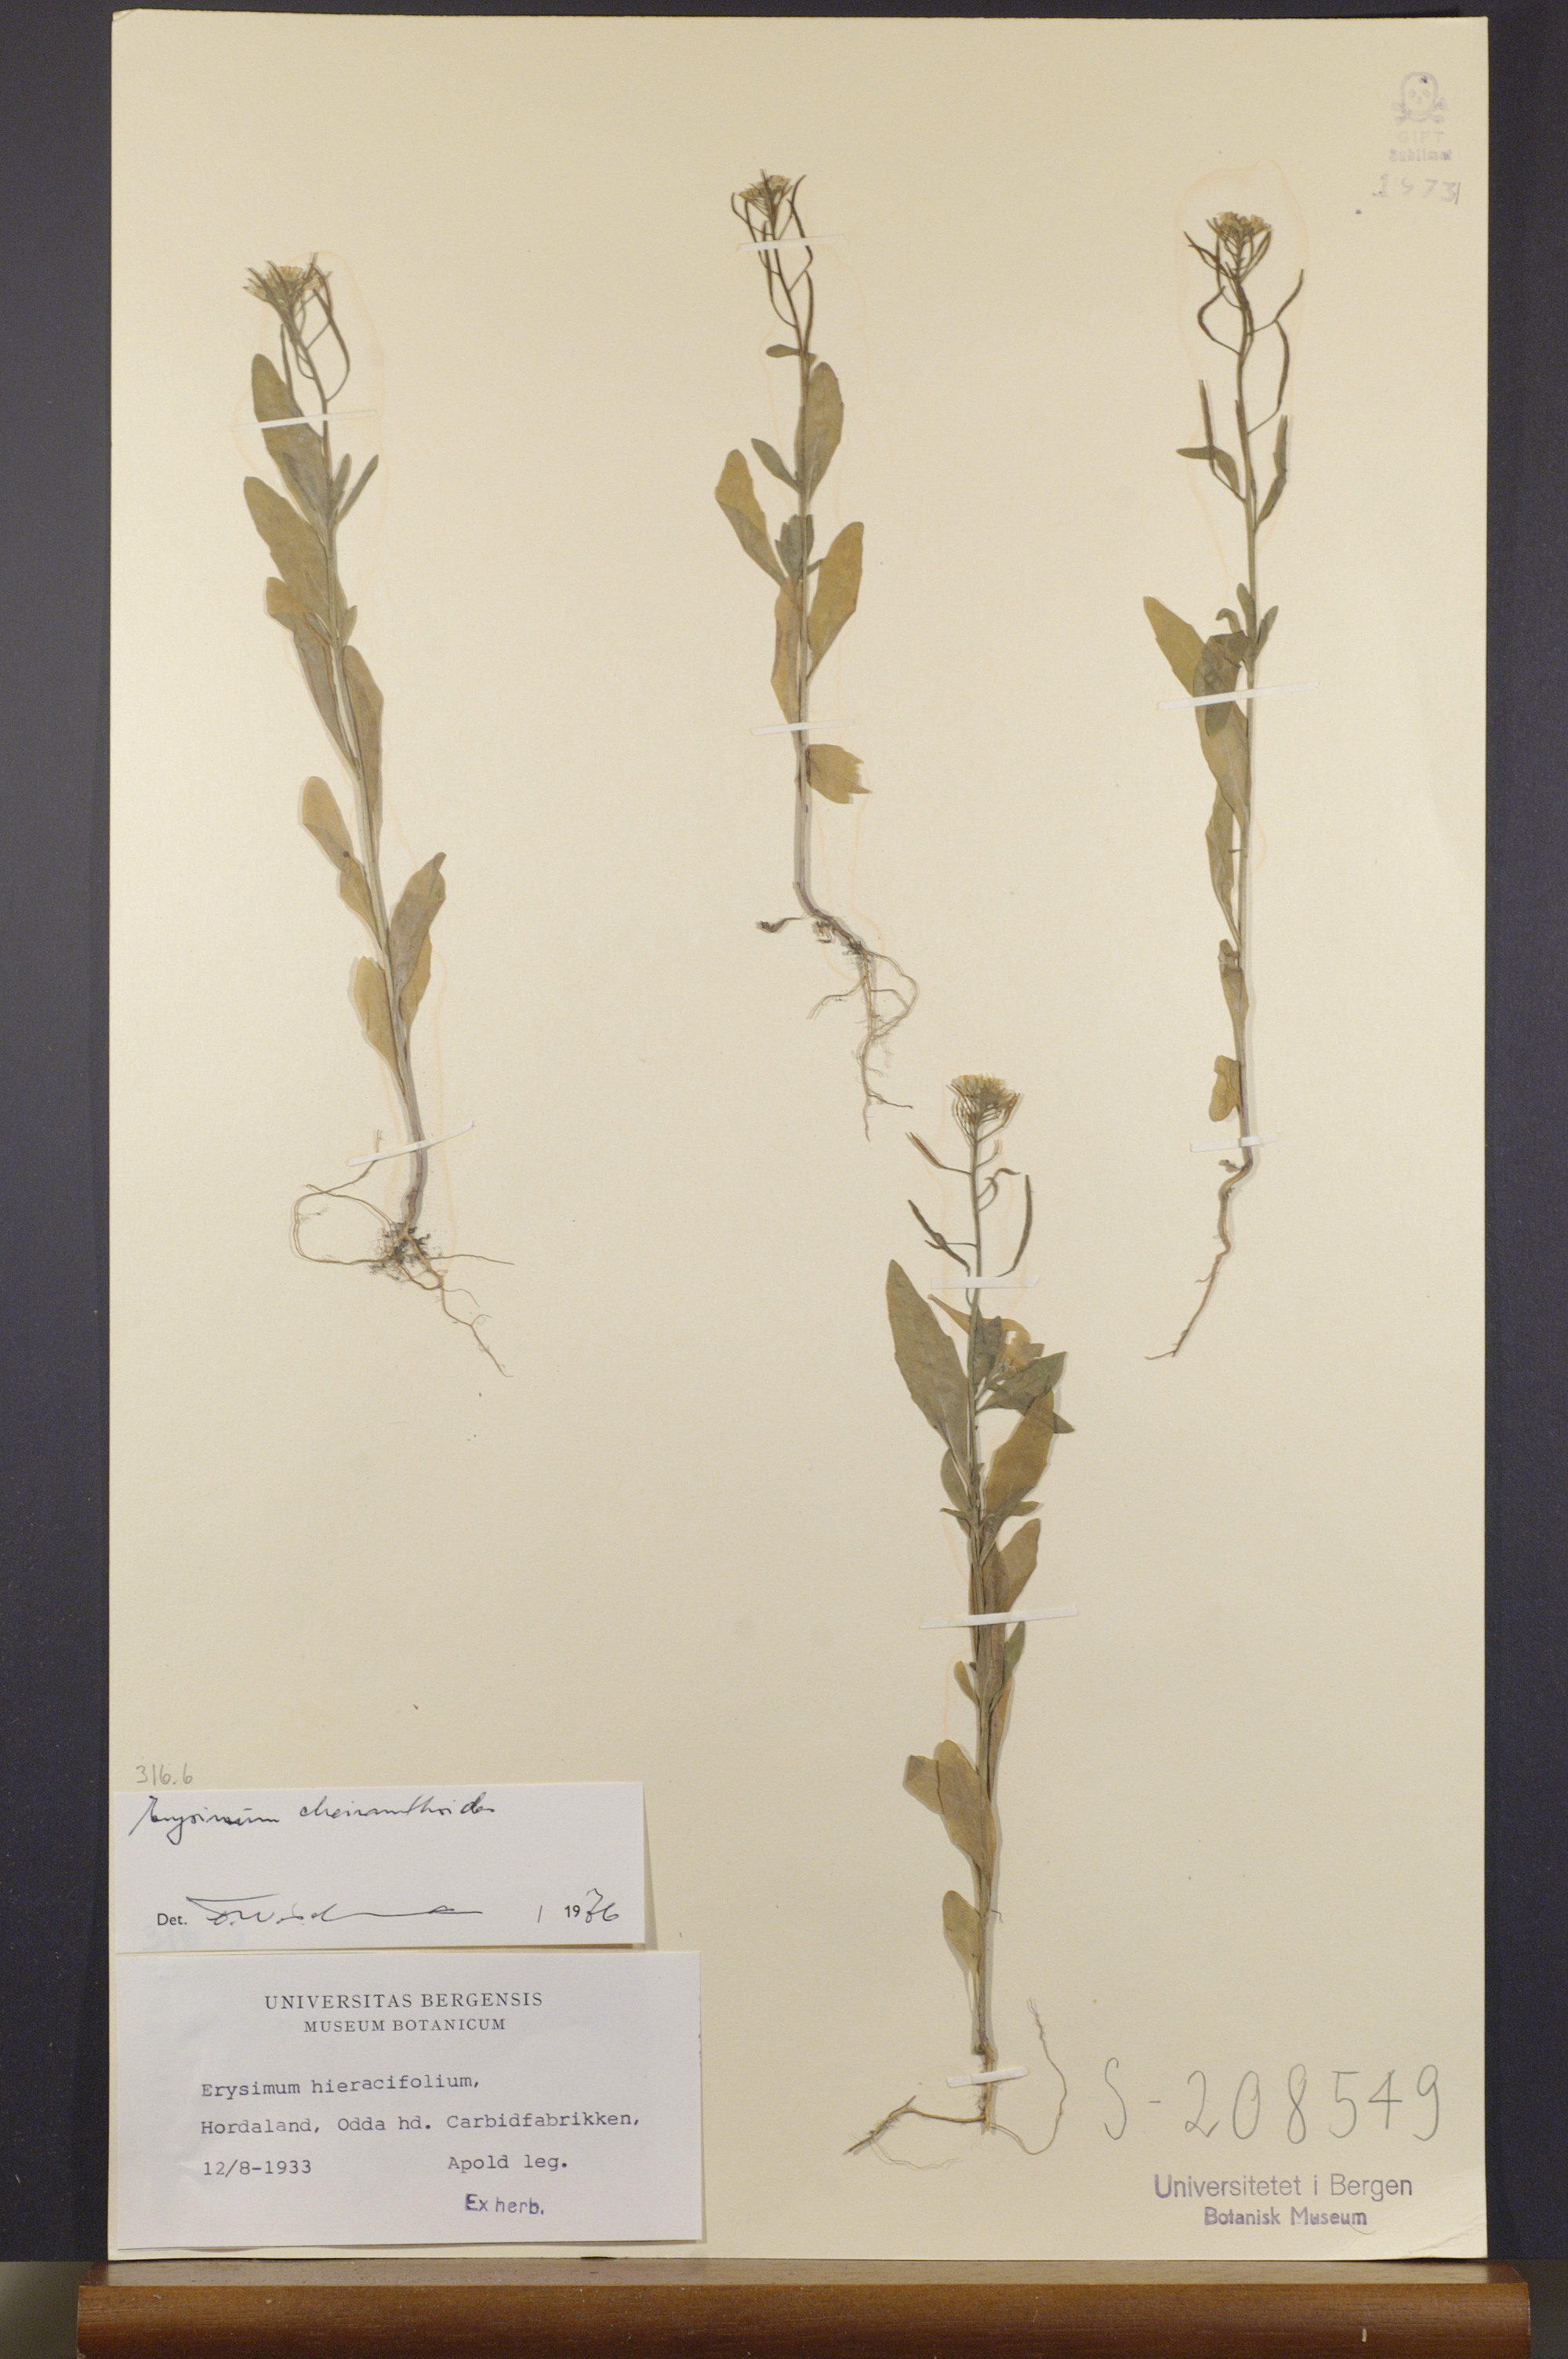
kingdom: Plantae
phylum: Tracheophyta
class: Magnoliopsida
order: Brassicales
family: Brassicaceae
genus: Erysimum
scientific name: Erysimum cheiranthoides
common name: Treacle mustard
